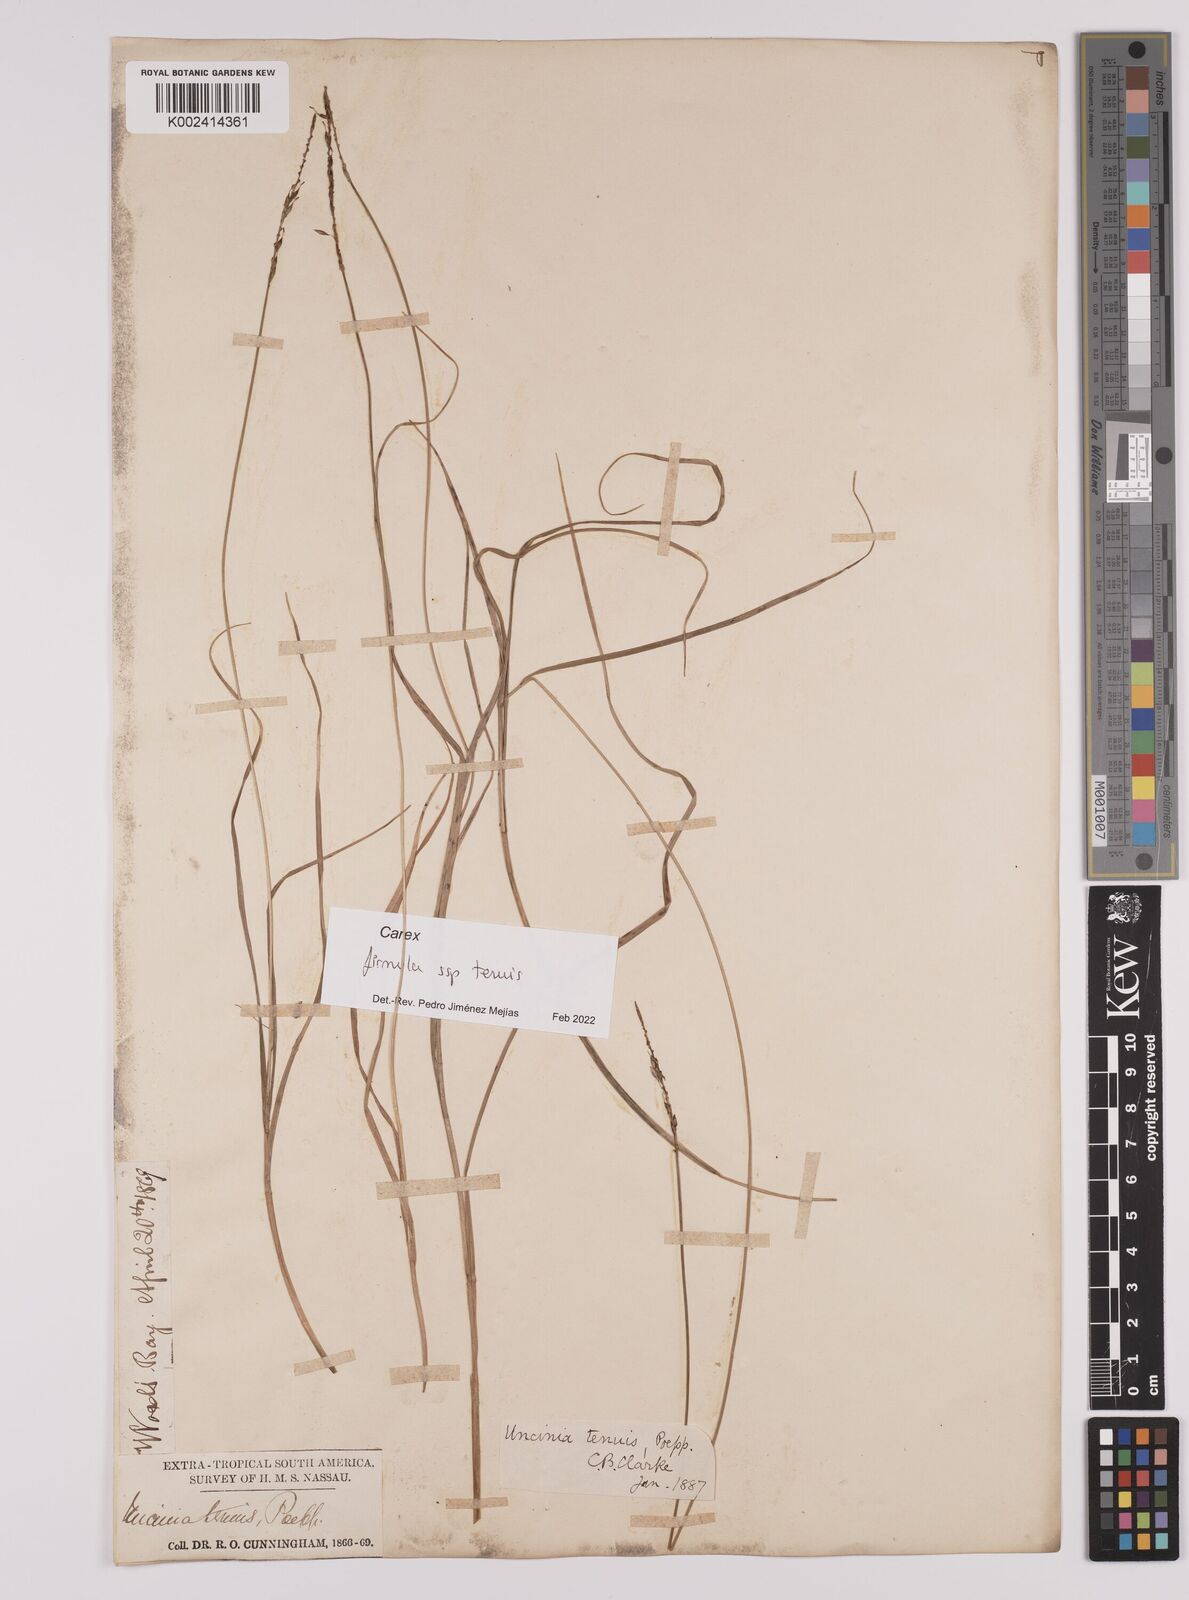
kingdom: Plantae
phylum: Tracheophyta
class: Liliopsida
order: Poales
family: Cyperaceae
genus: Carex
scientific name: Carex firmula
